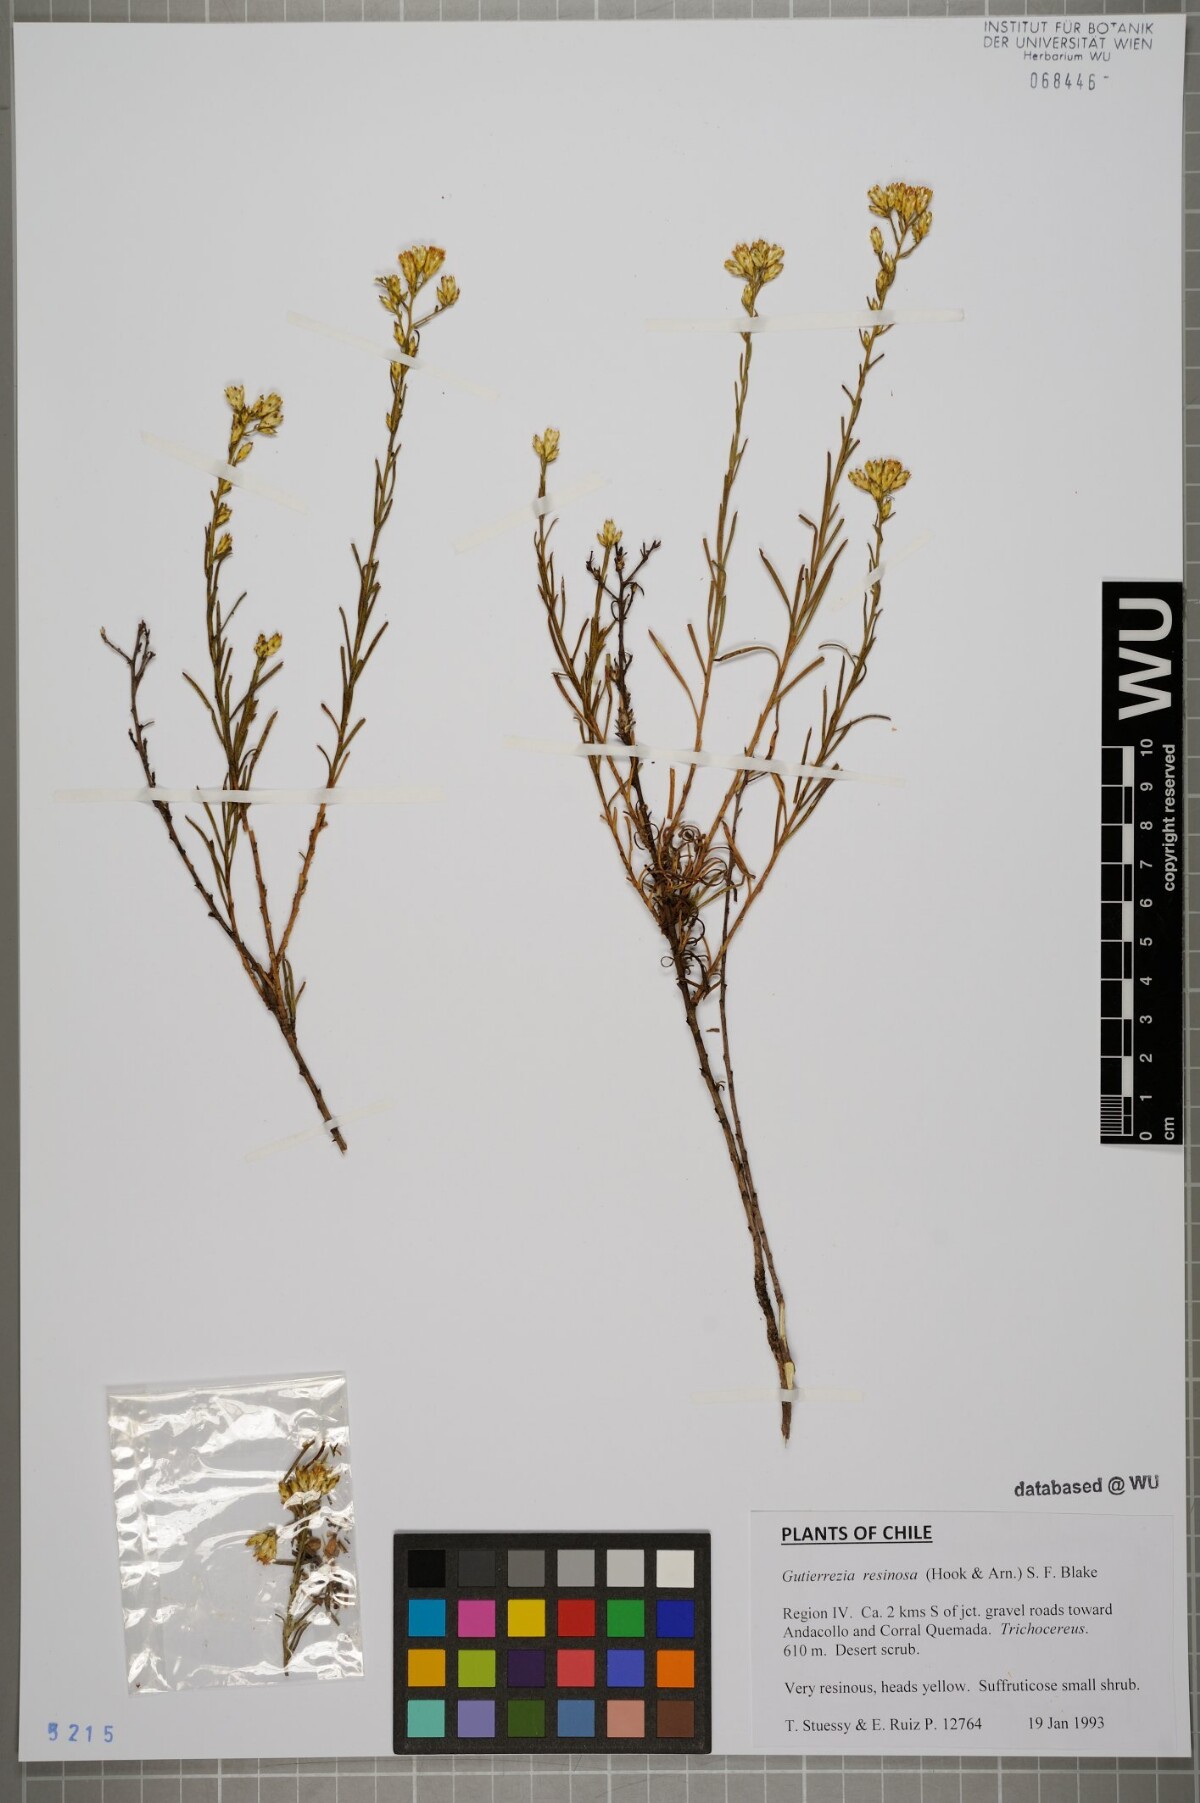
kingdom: Plantae
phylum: Tracheophyta
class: Magnoliopsida
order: Asterales
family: Asteraceae
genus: Gutierrezia
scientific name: Gutierrezia resinosa
